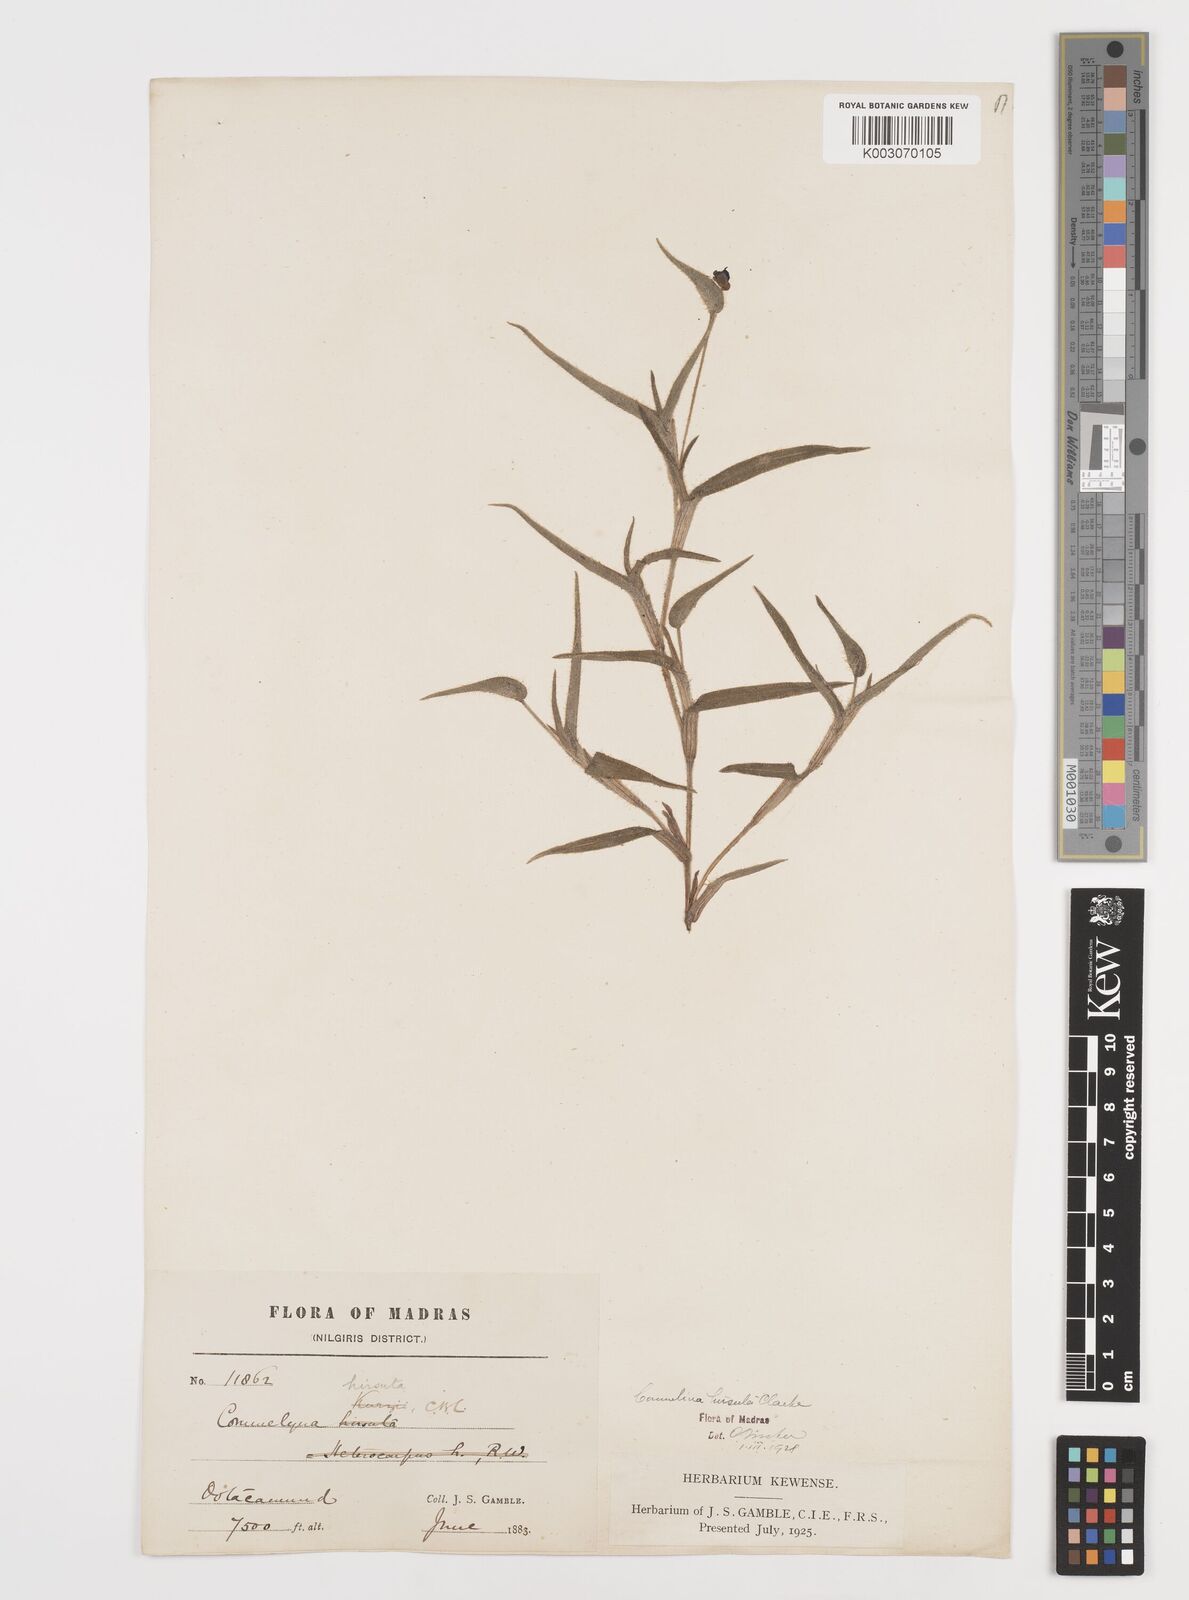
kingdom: Plantae
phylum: Tracheophyta
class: Liliopsida
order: Commelinales
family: Commelinaceae
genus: Commelina
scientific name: Commelina hirsuta
